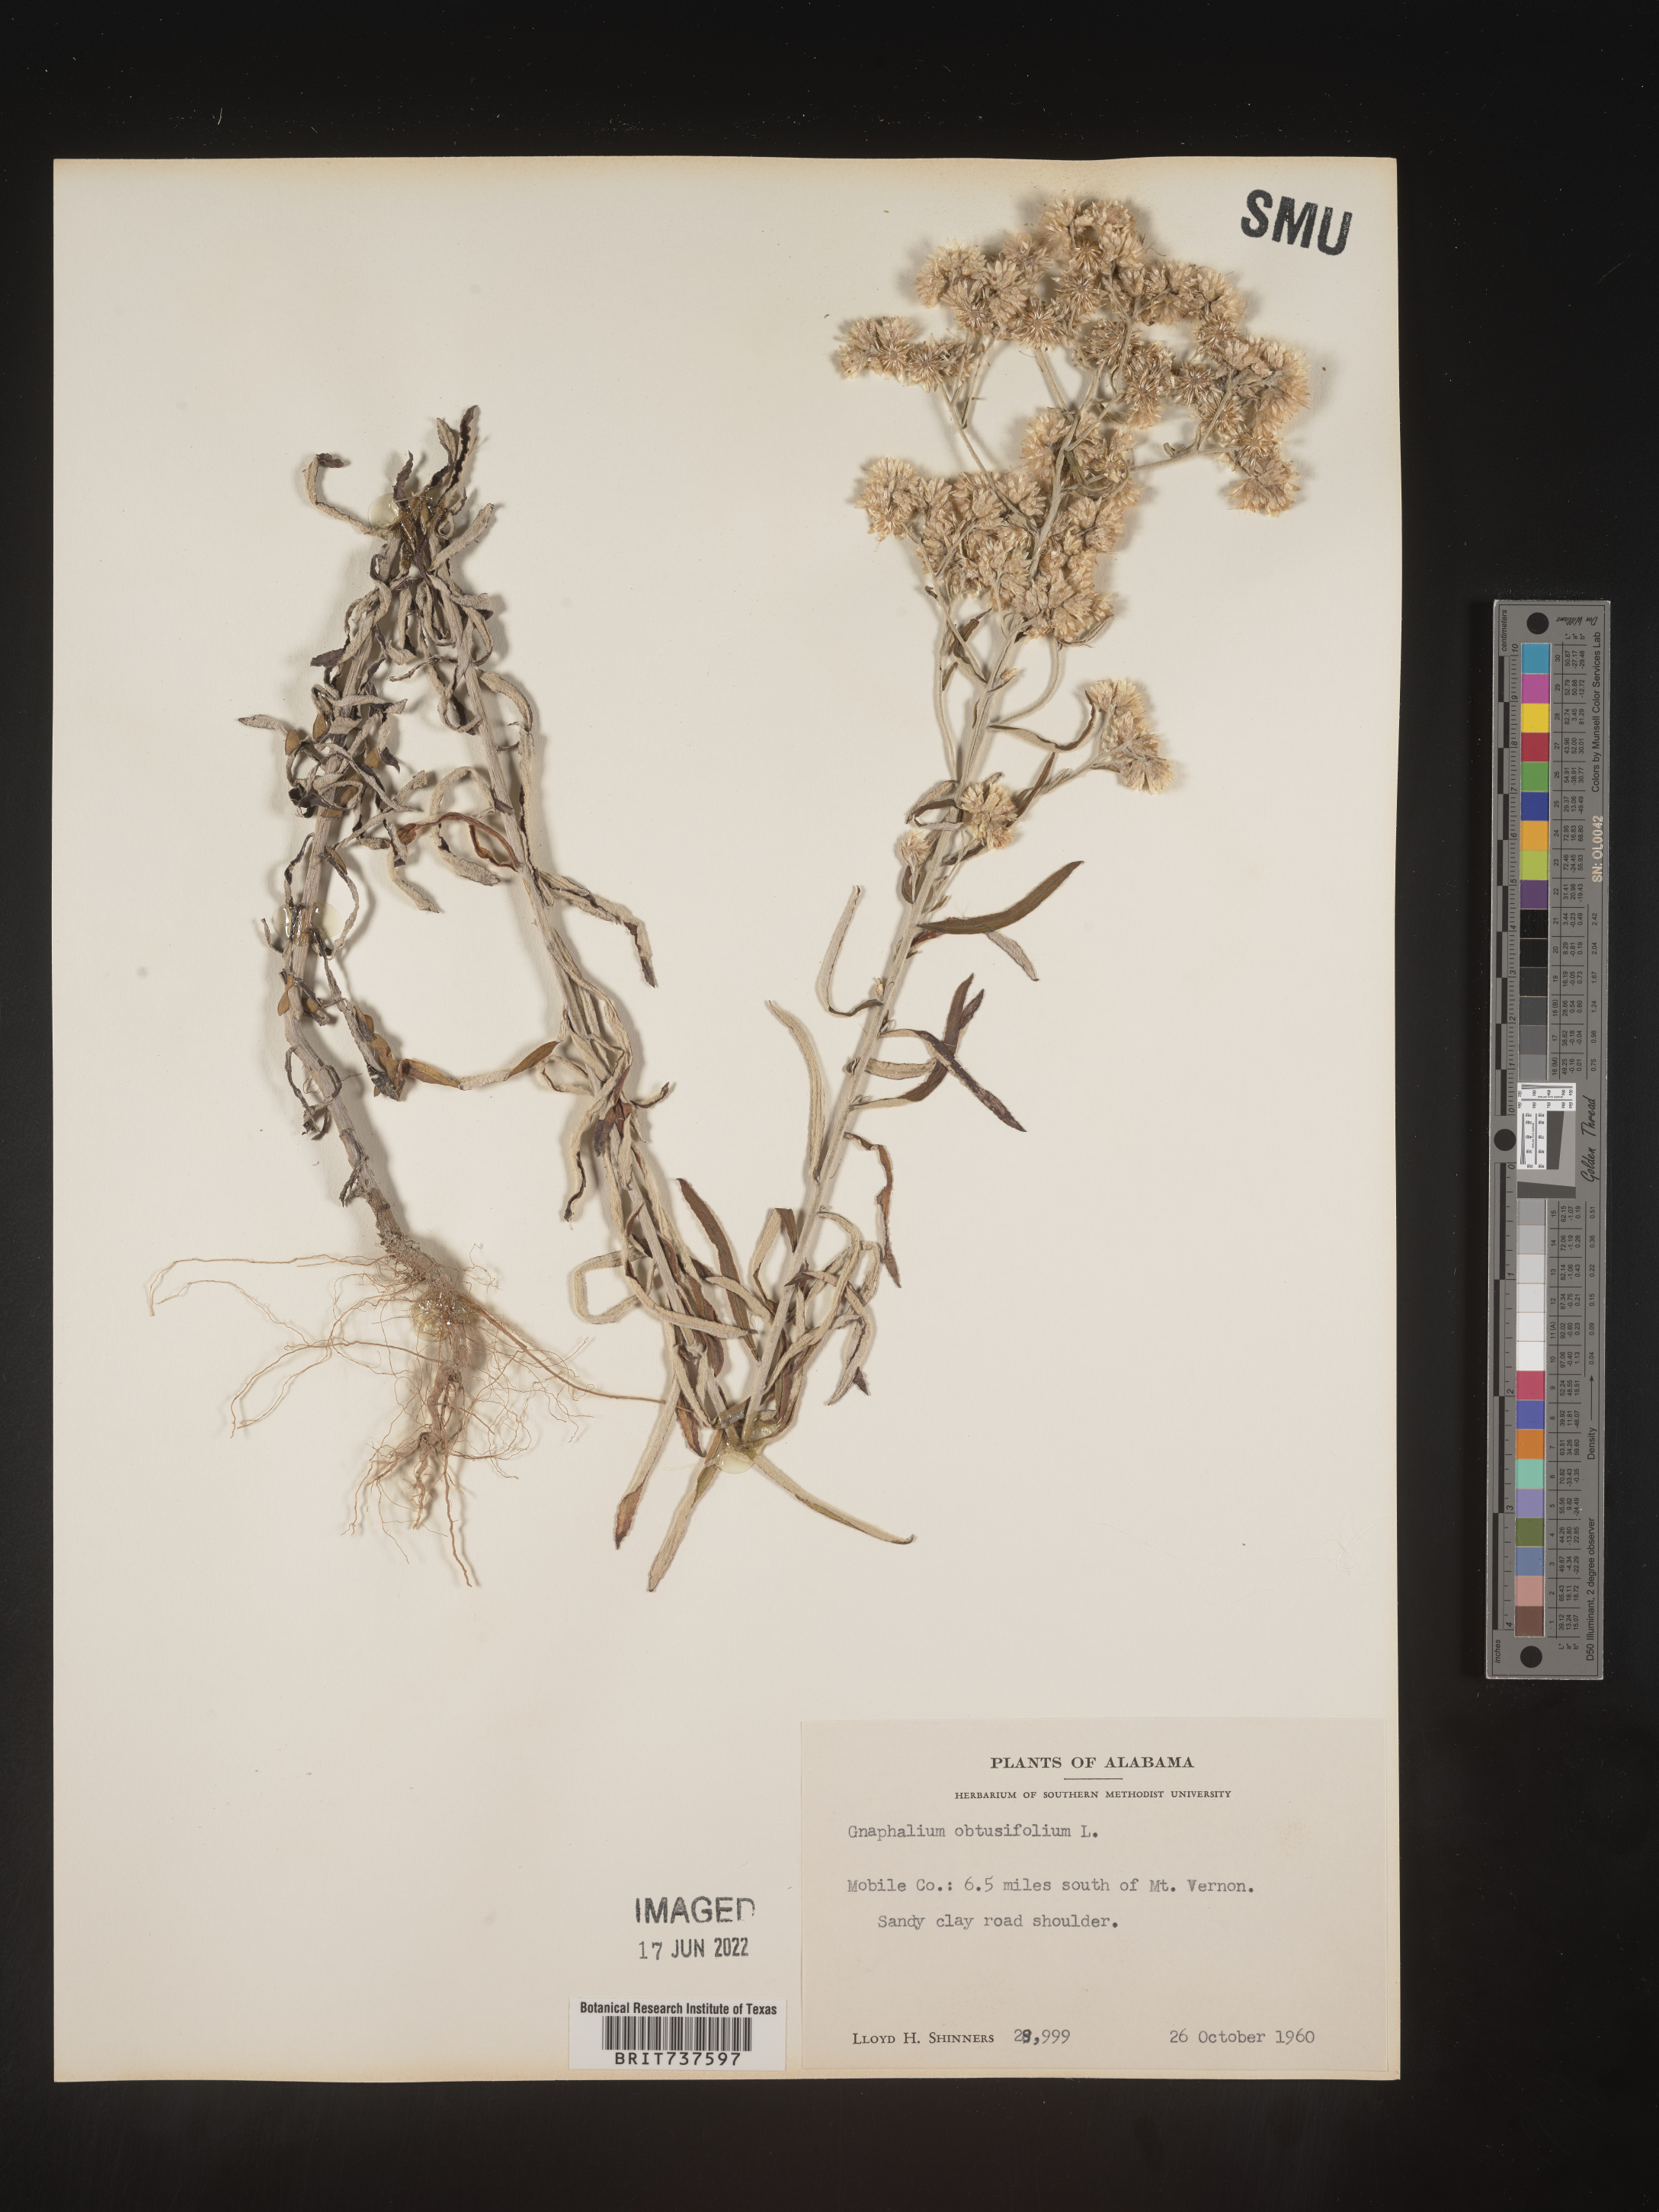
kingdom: Plantae
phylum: Tracheophyta
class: Magnoliopsida
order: Asterales
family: Asteraceae
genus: Pseudognaphalium
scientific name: Pseudognaphalium obtusifolium
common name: Eastern rabbit-tobacco
